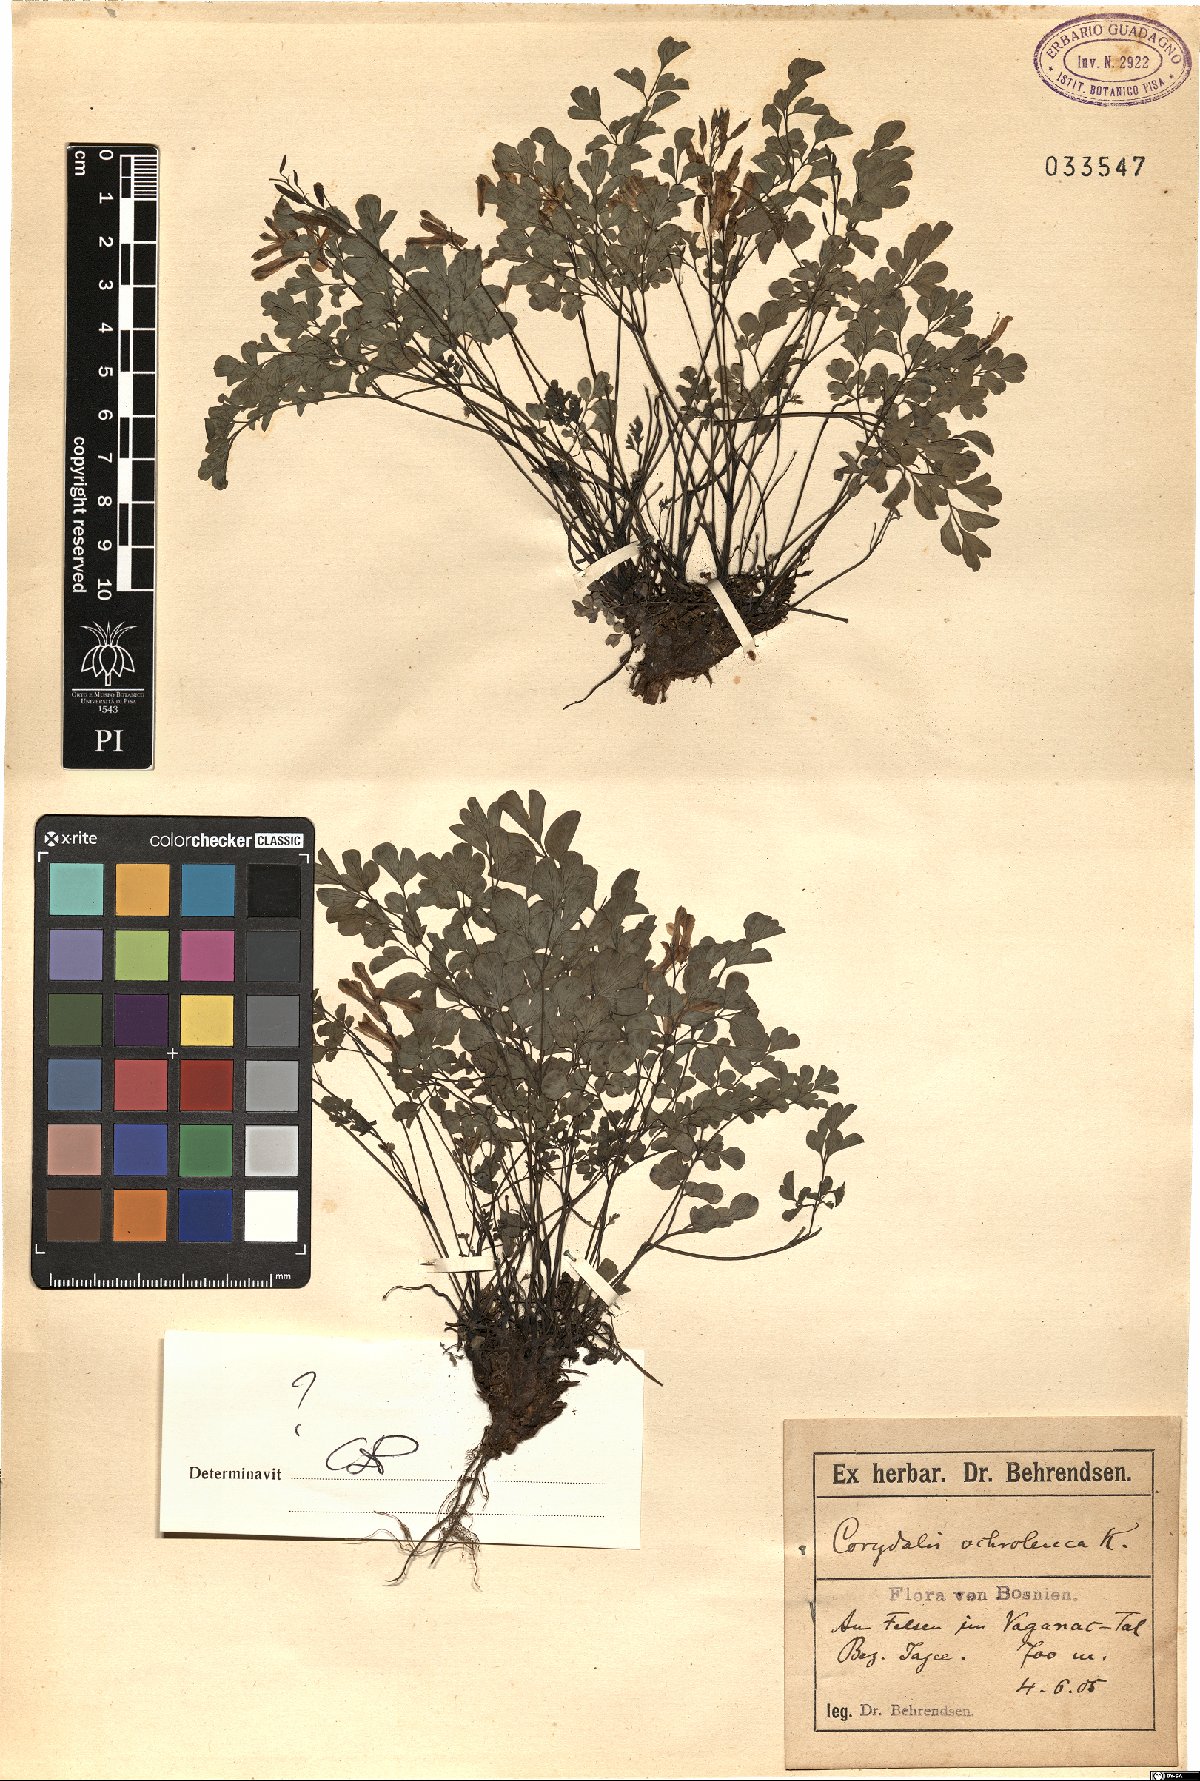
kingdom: Plantae
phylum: Tracheophyta
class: Magnoliopsida
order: Ranunculales
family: Papaveraceae
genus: Pseudofumaria
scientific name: Pseudofumaria alba
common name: Pale corydalis
